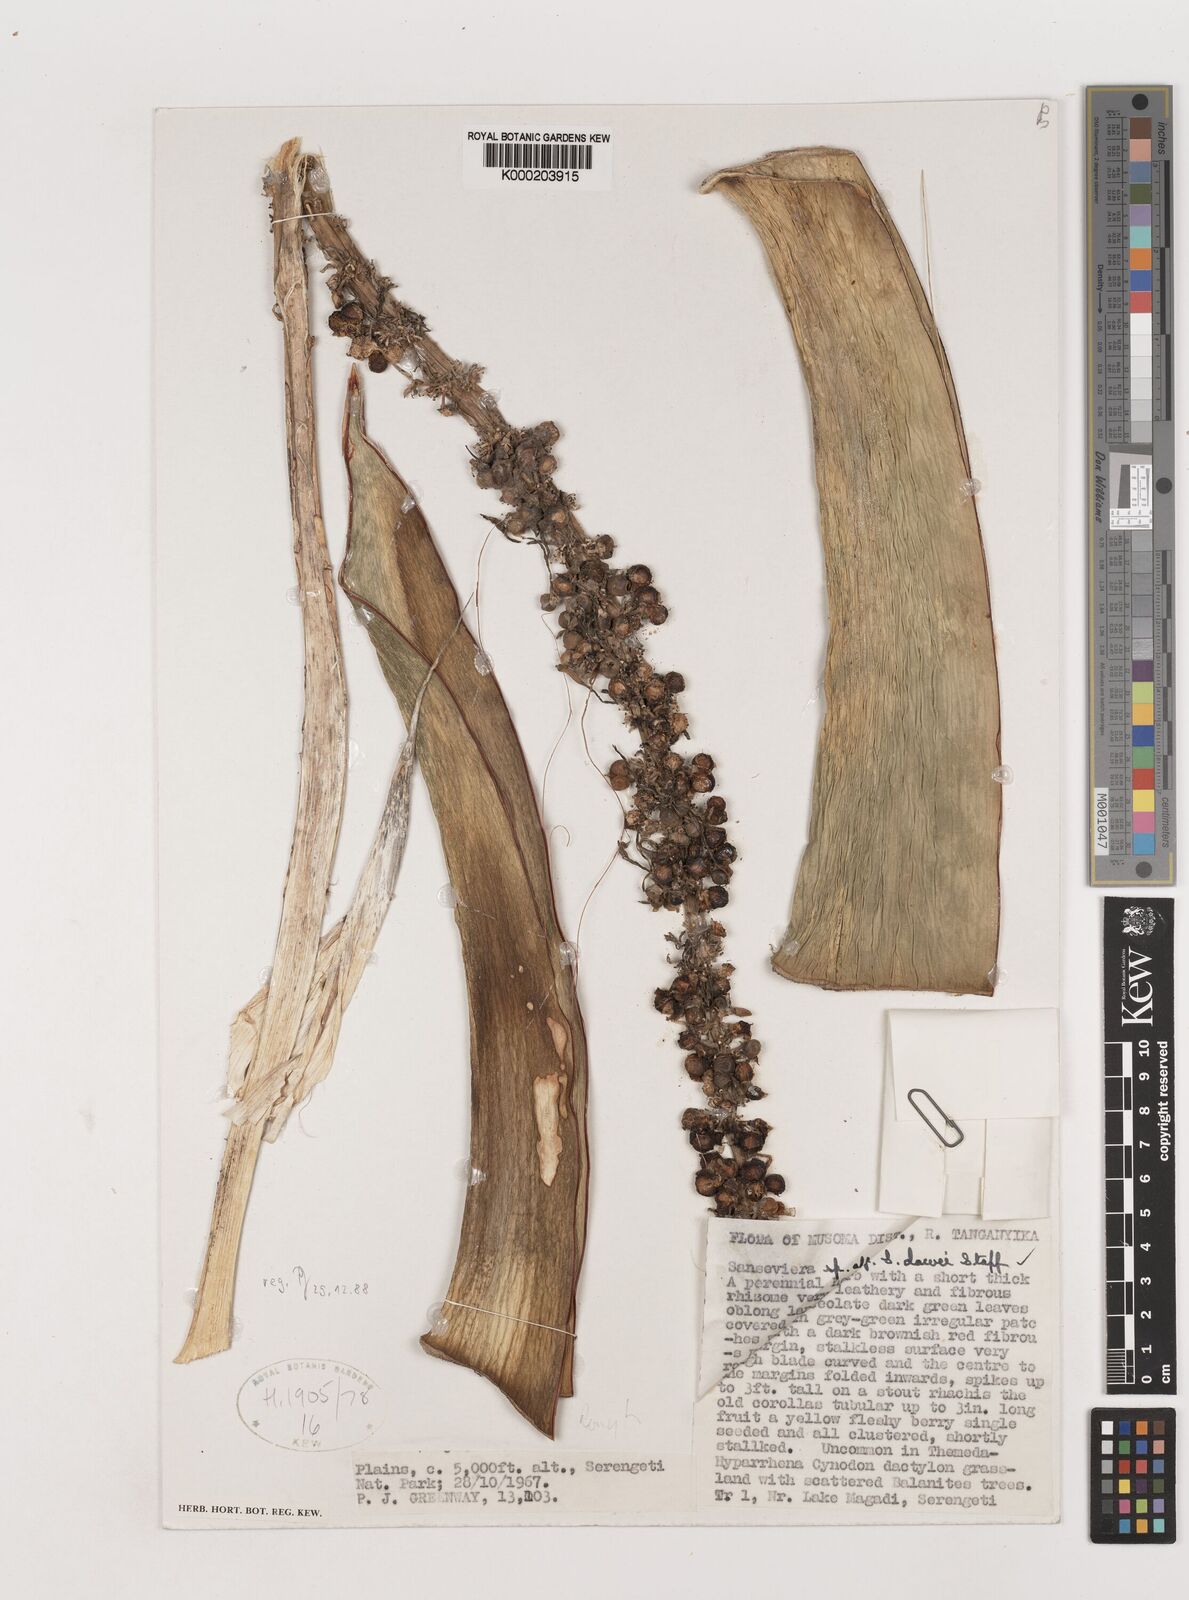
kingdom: Plantae
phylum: Tracheophyta
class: Liliopsida
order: Asparagales
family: Asparagaceae
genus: Dracaena
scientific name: Dracaena dawei
